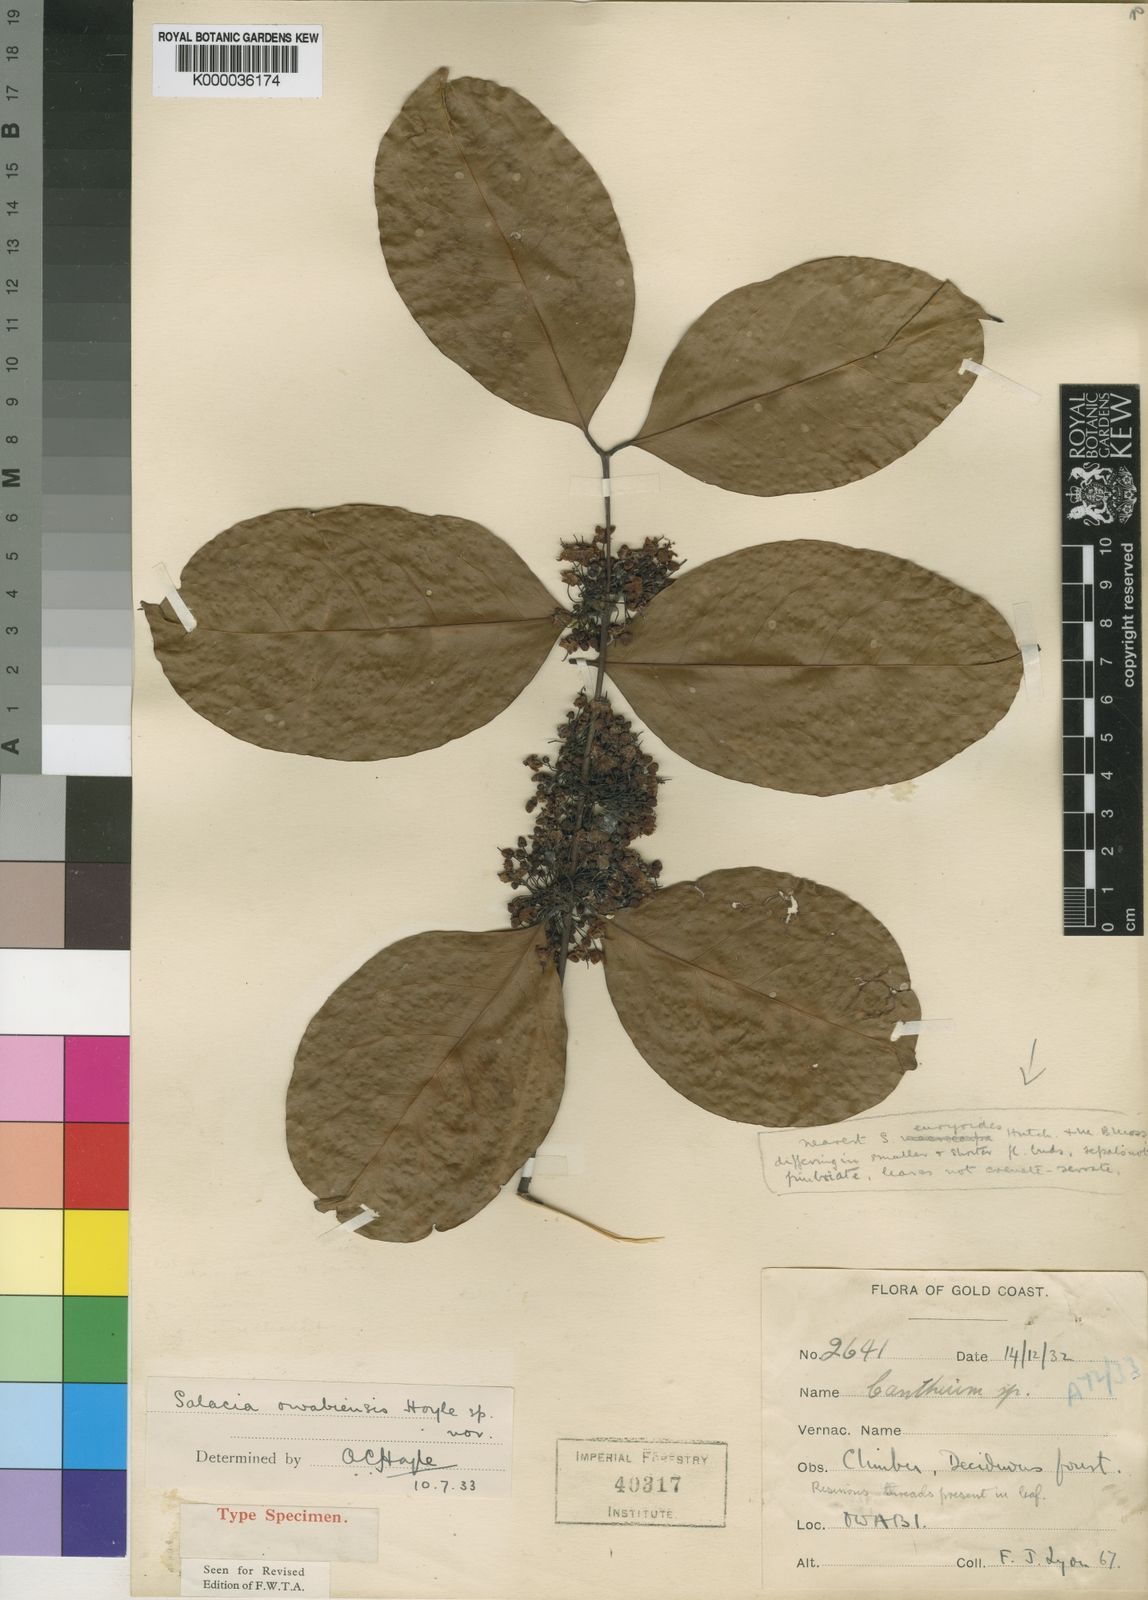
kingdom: Plantae
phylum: Tracheophyta
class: Magnoliopsida
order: Celastrales
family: Celastraceae
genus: Salacia
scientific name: Salacia owabiensis
